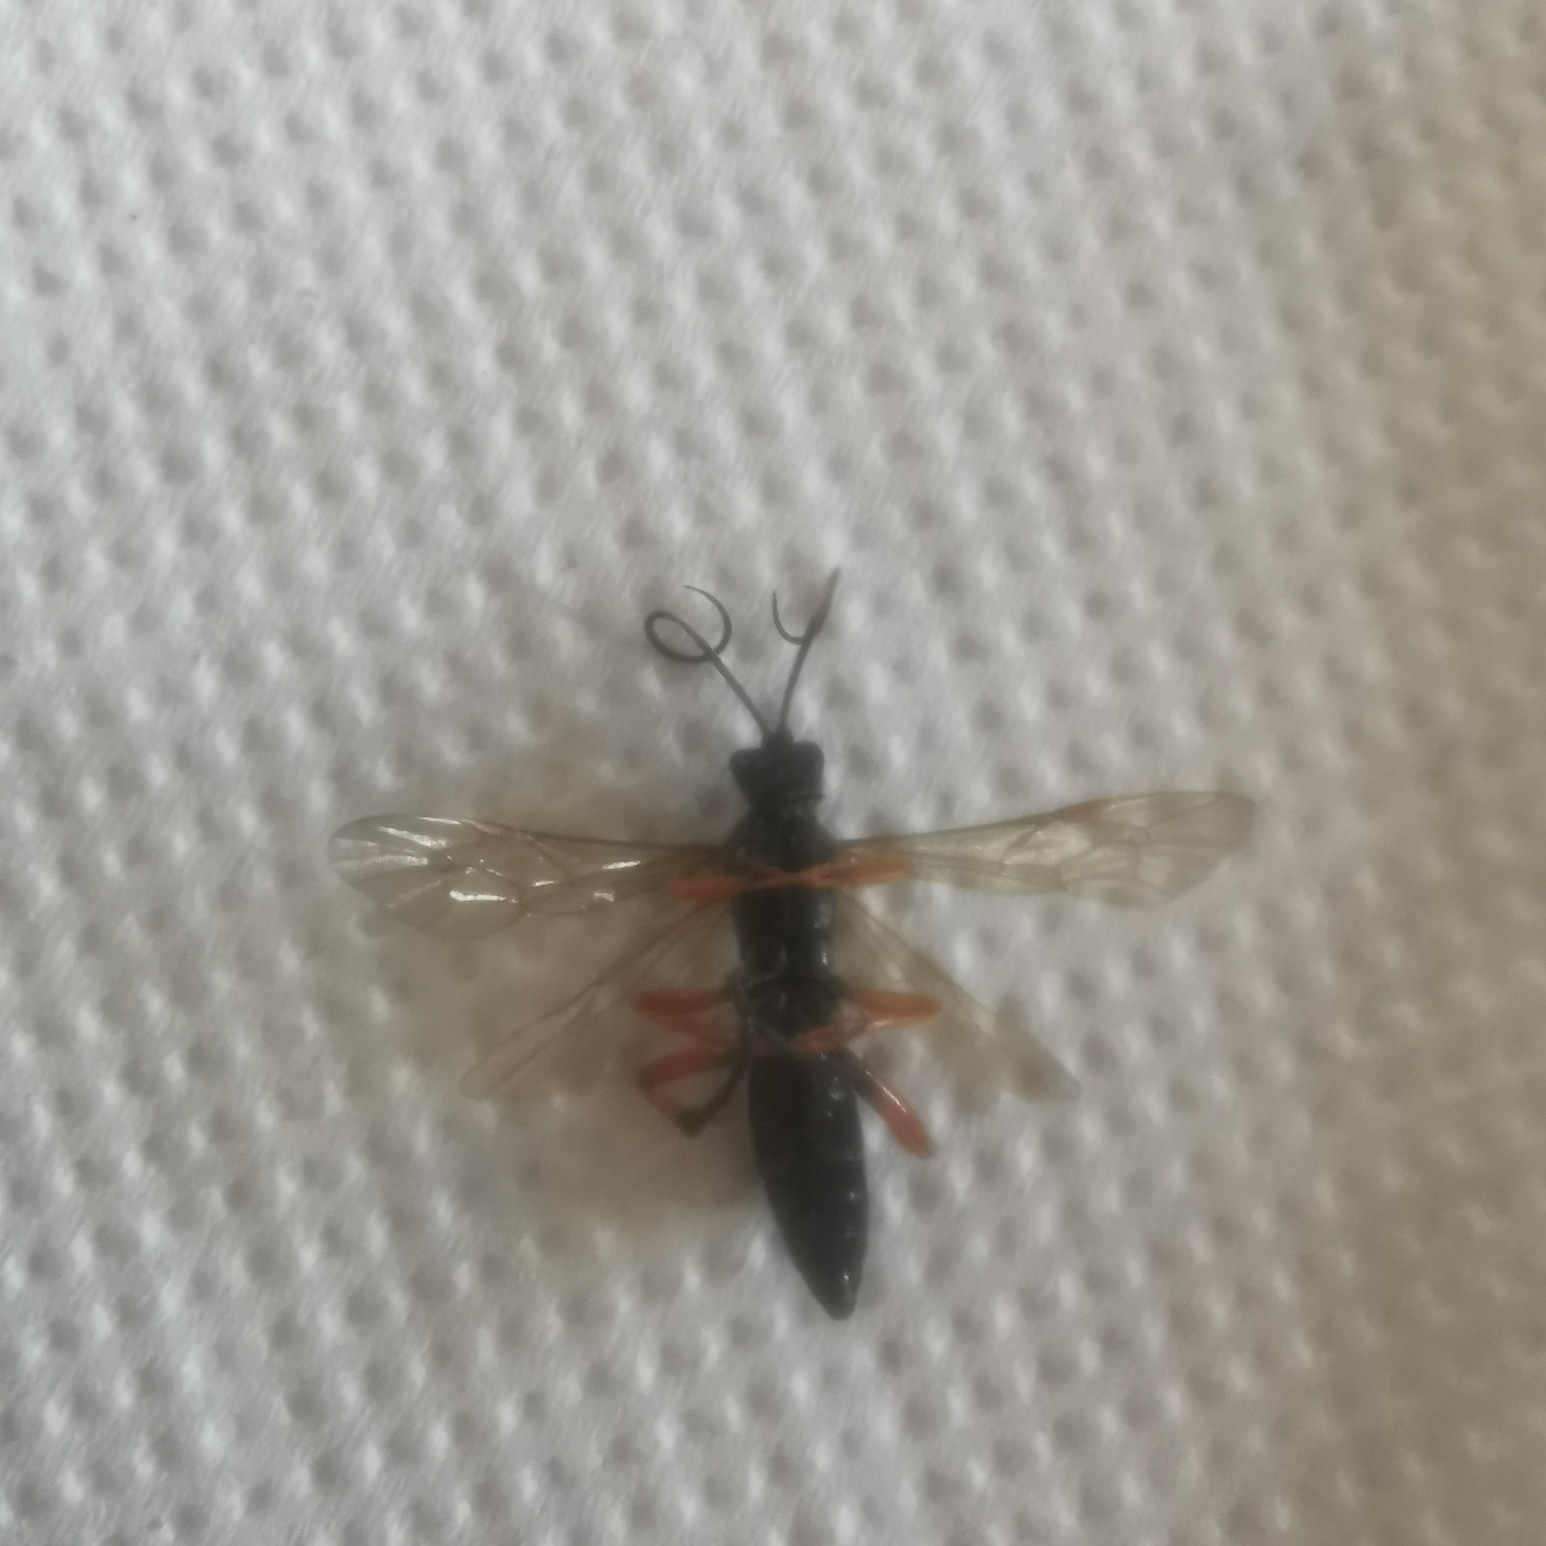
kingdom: Animalia
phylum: Arthropoda
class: Insecta
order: Hymenoptera
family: Ichneumonidae
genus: Diphyus
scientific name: Diphyus quadripunctorius
